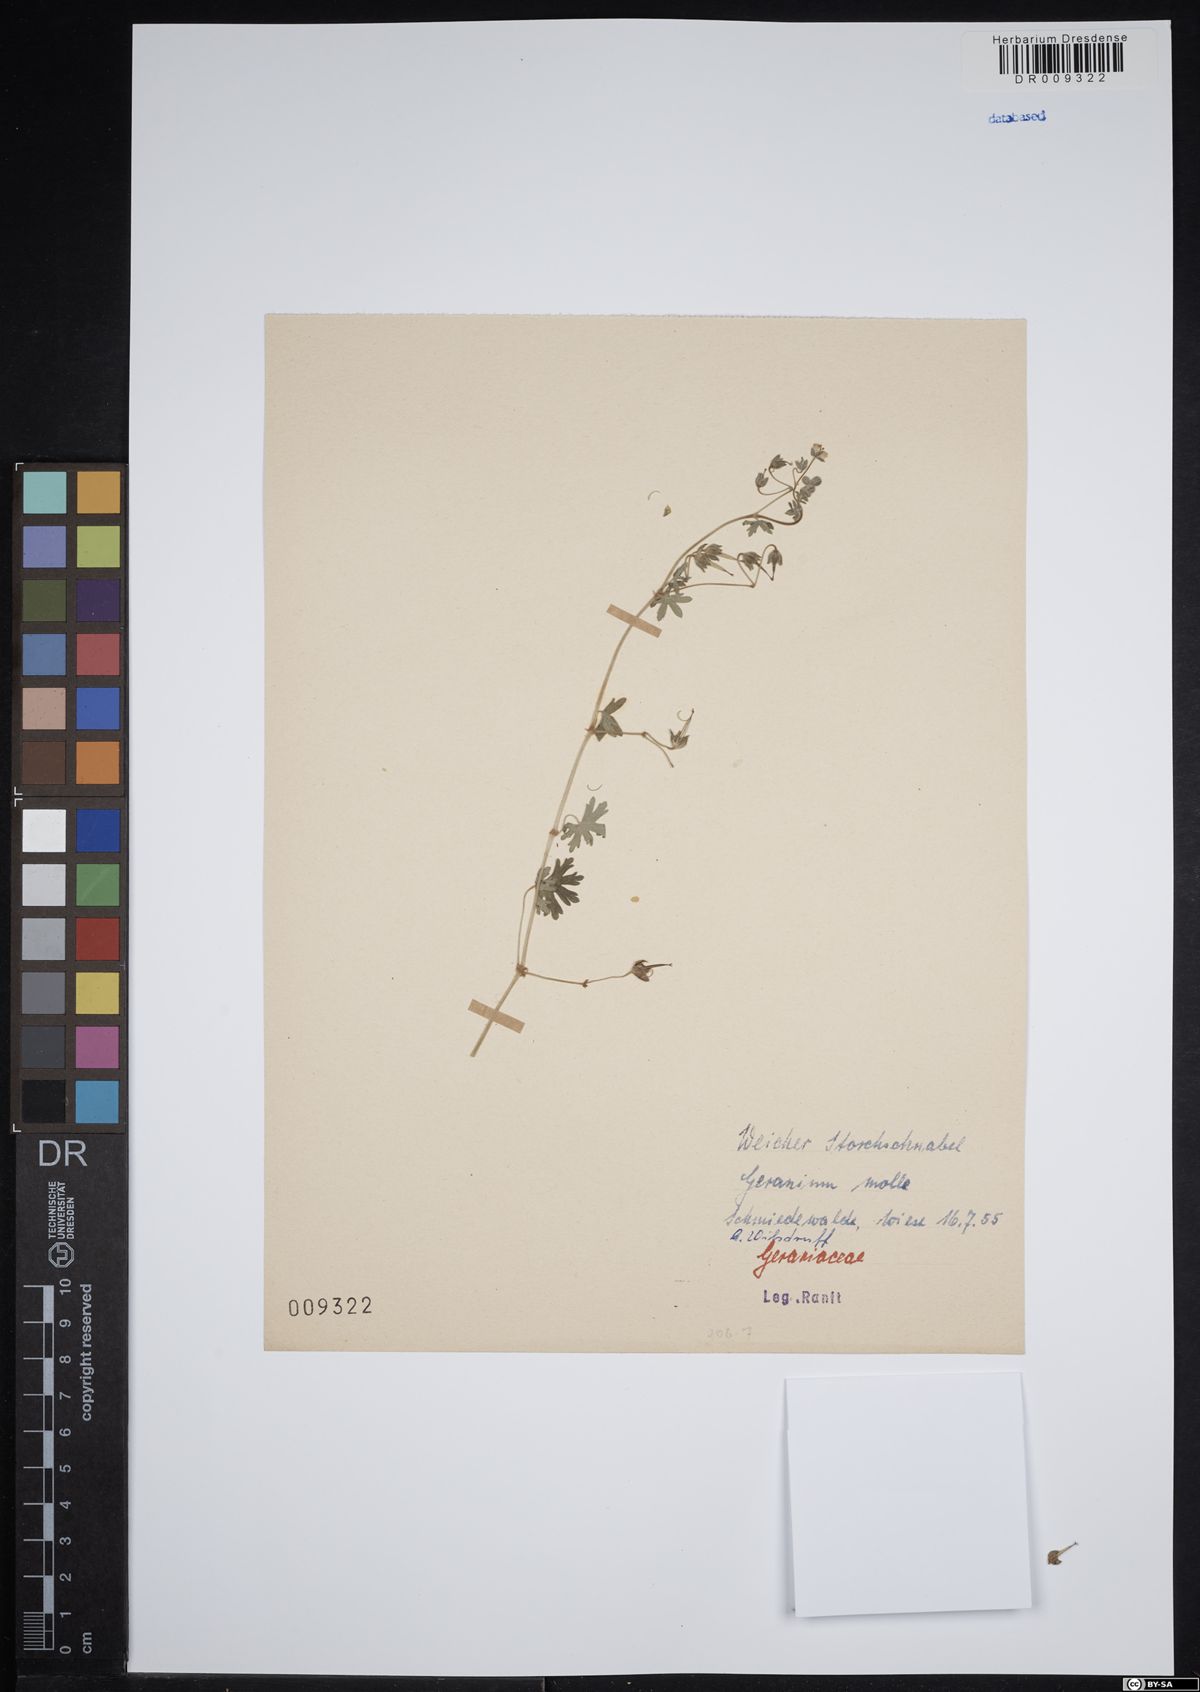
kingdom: Plantae
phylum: Tracheophyta
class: Magnoliopsida
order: Geraniales
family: Geraniaceae
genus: Geranium
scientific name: Geranium molle
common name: Dove's-foot crane's-bill
